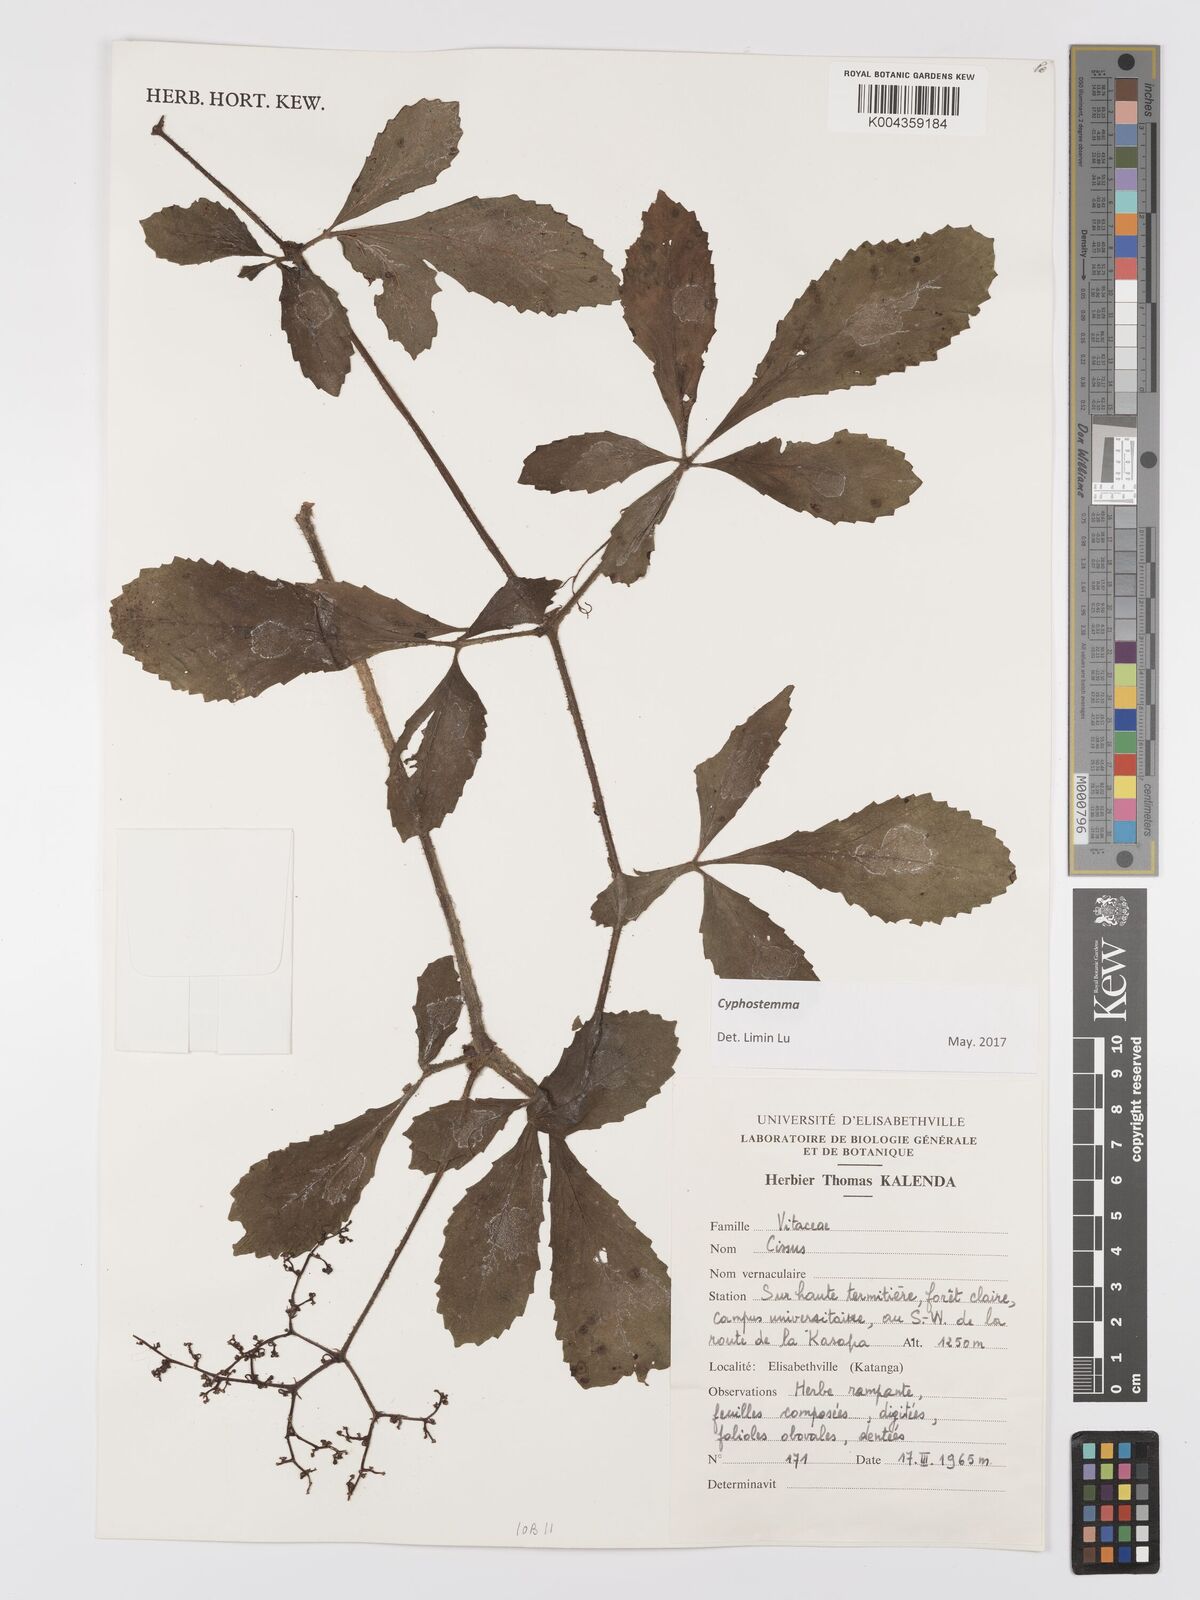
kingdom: Plantae
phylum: Tracheophyta
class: Magnoliopsida
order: Vitales
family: Vitaceae
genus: Cyphostemma
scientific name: Cyphostemma njegerre
